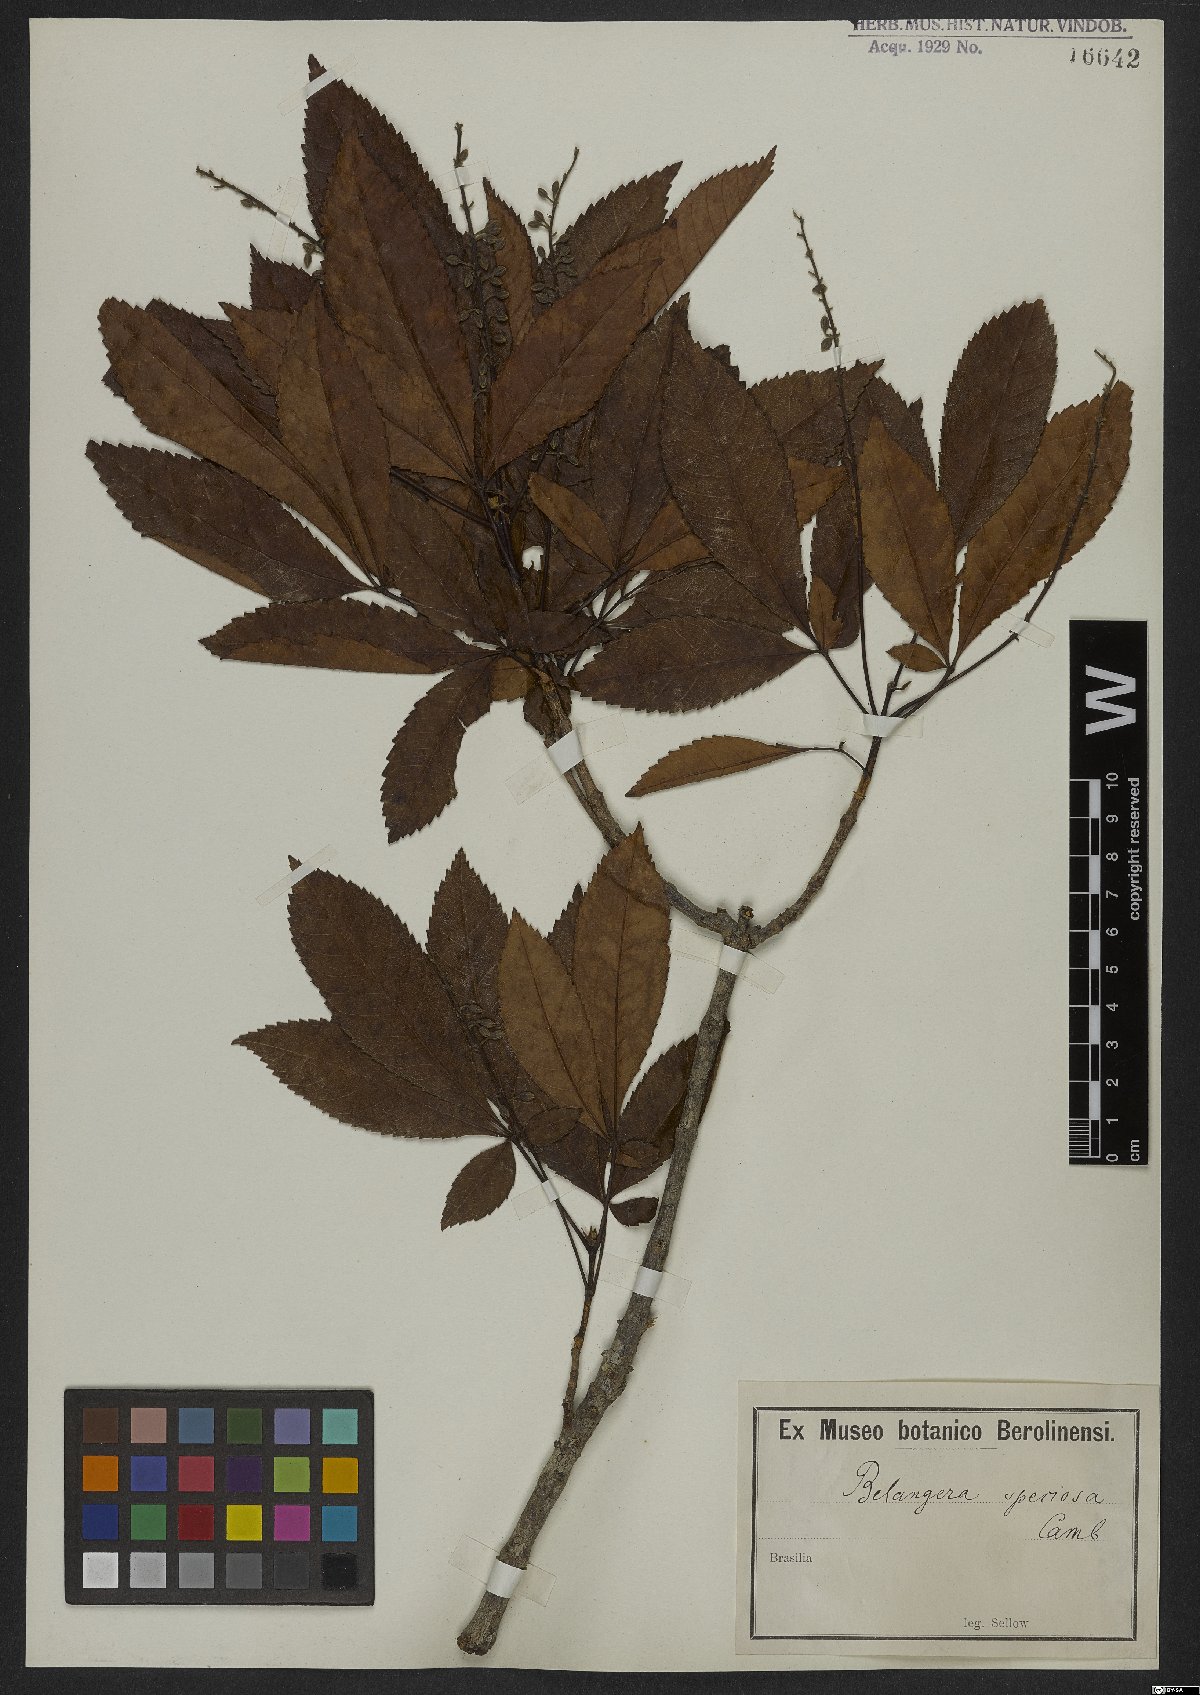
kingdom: Plantae
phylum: Tracheophyta
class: Magnoliopsida
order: Oxalidales
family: Cunoniaceae
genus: Lamanonia
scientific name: Lamanonia speciosa
